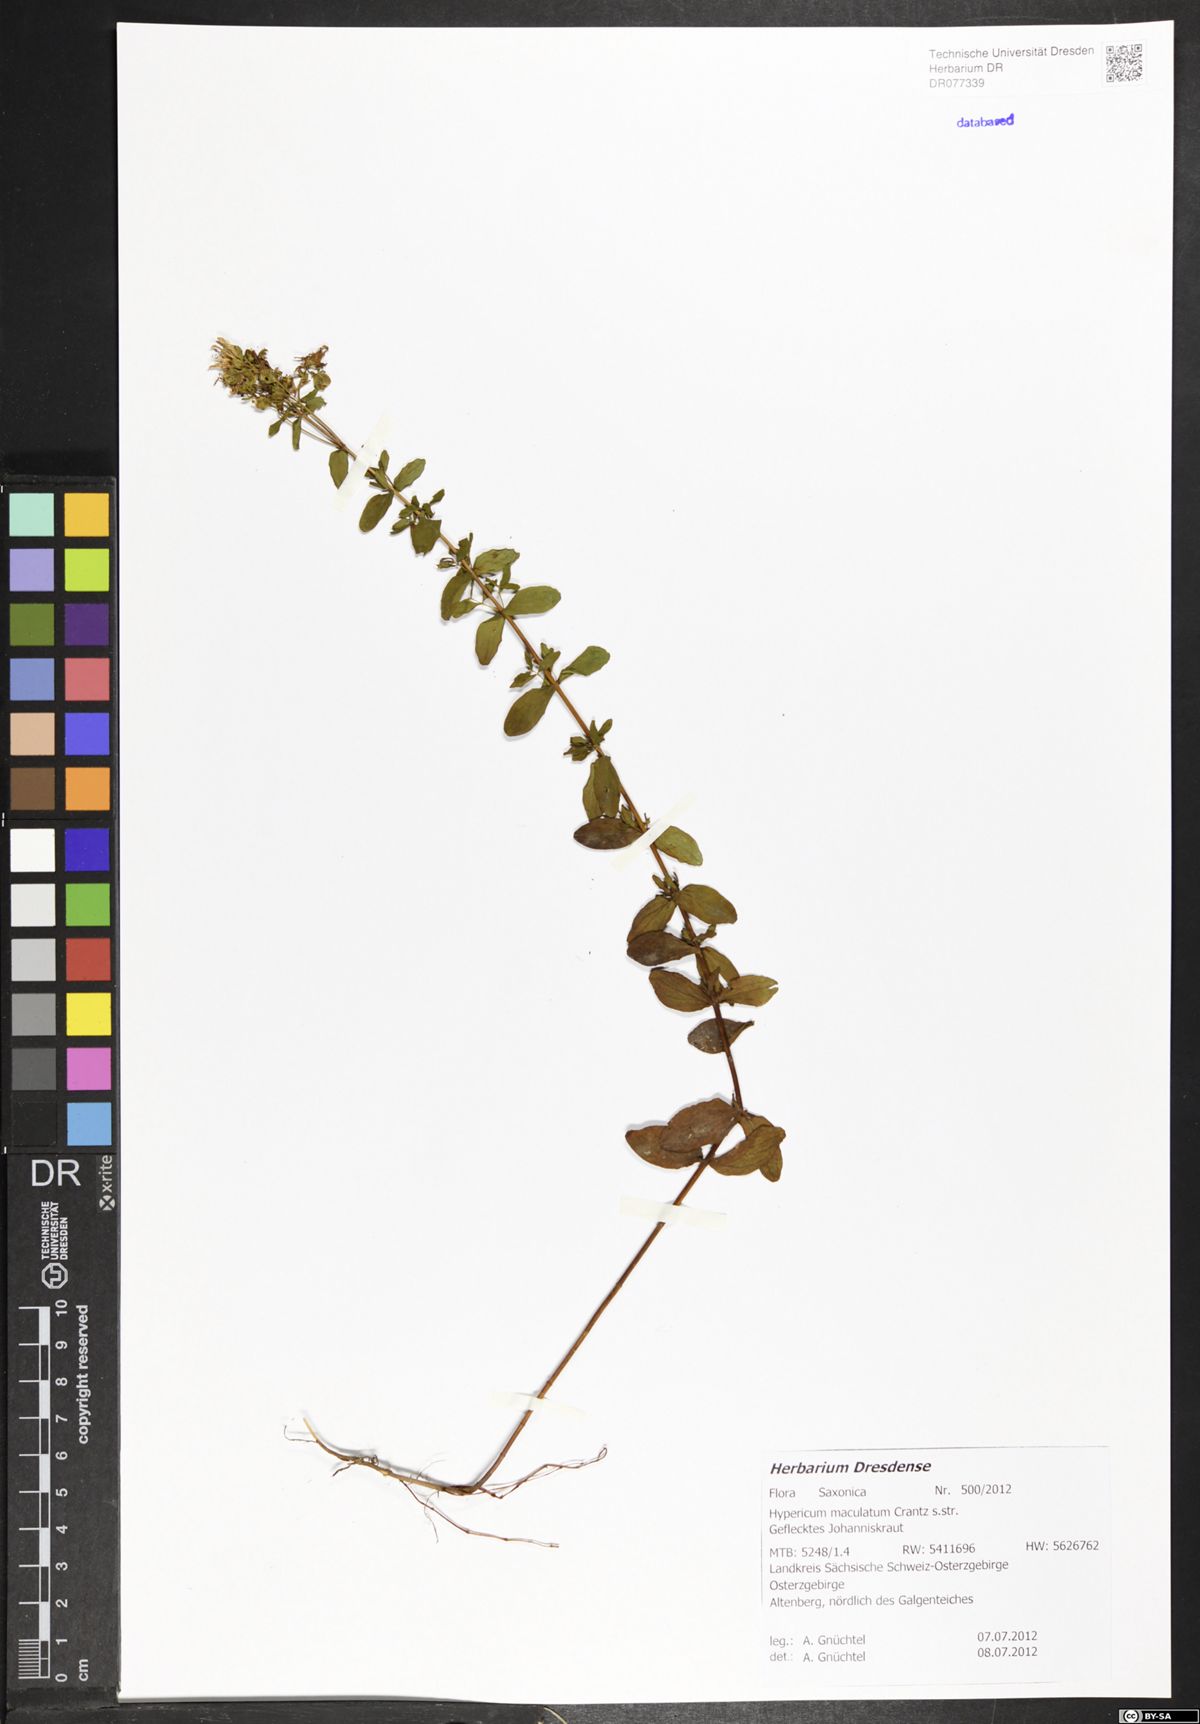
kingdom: Plantae
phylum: Tracheophyta
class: Magnoliopsida
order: Malpighiales
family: Hypericaceae
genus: Hypericum
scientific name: Hypericum maculatum
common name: Imperforate st. john's-wort
